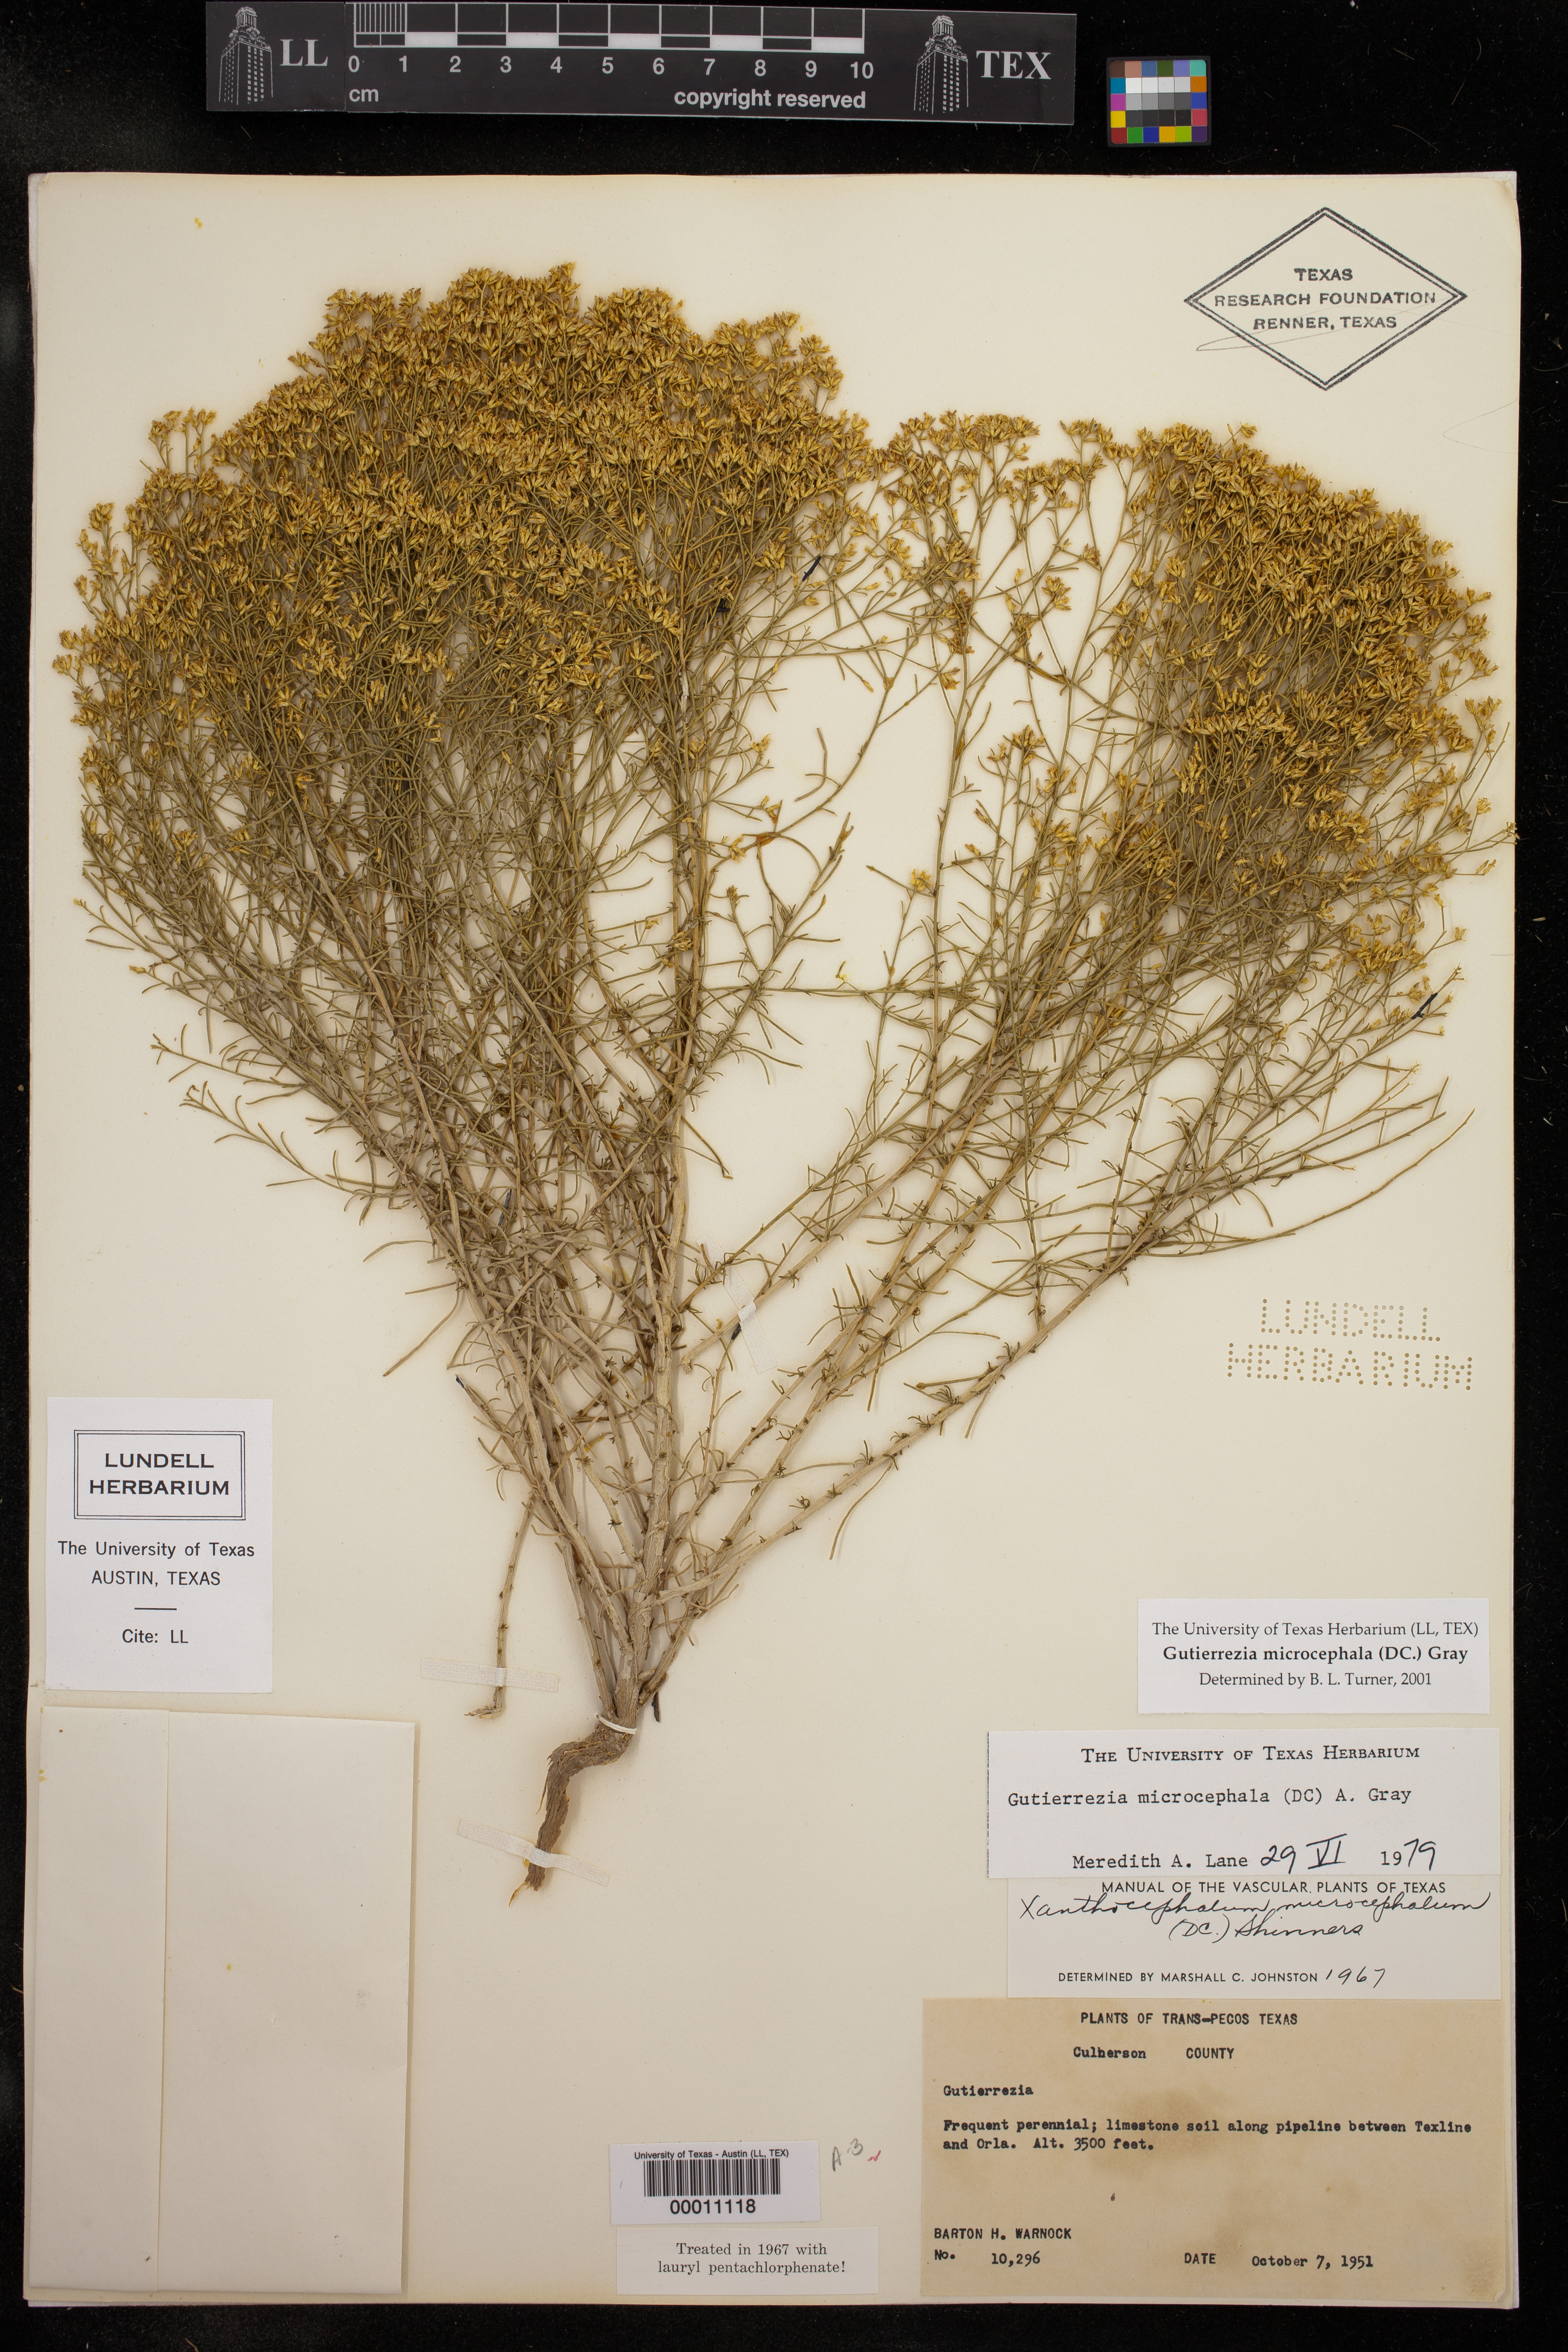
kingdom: Plantae
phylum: Tracheophyta
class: Magnoliopsida
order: Asterales
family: Asteraceae
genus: Gutierrezia
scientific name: Gutierrezia microcephala
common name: Thread snakeweed
